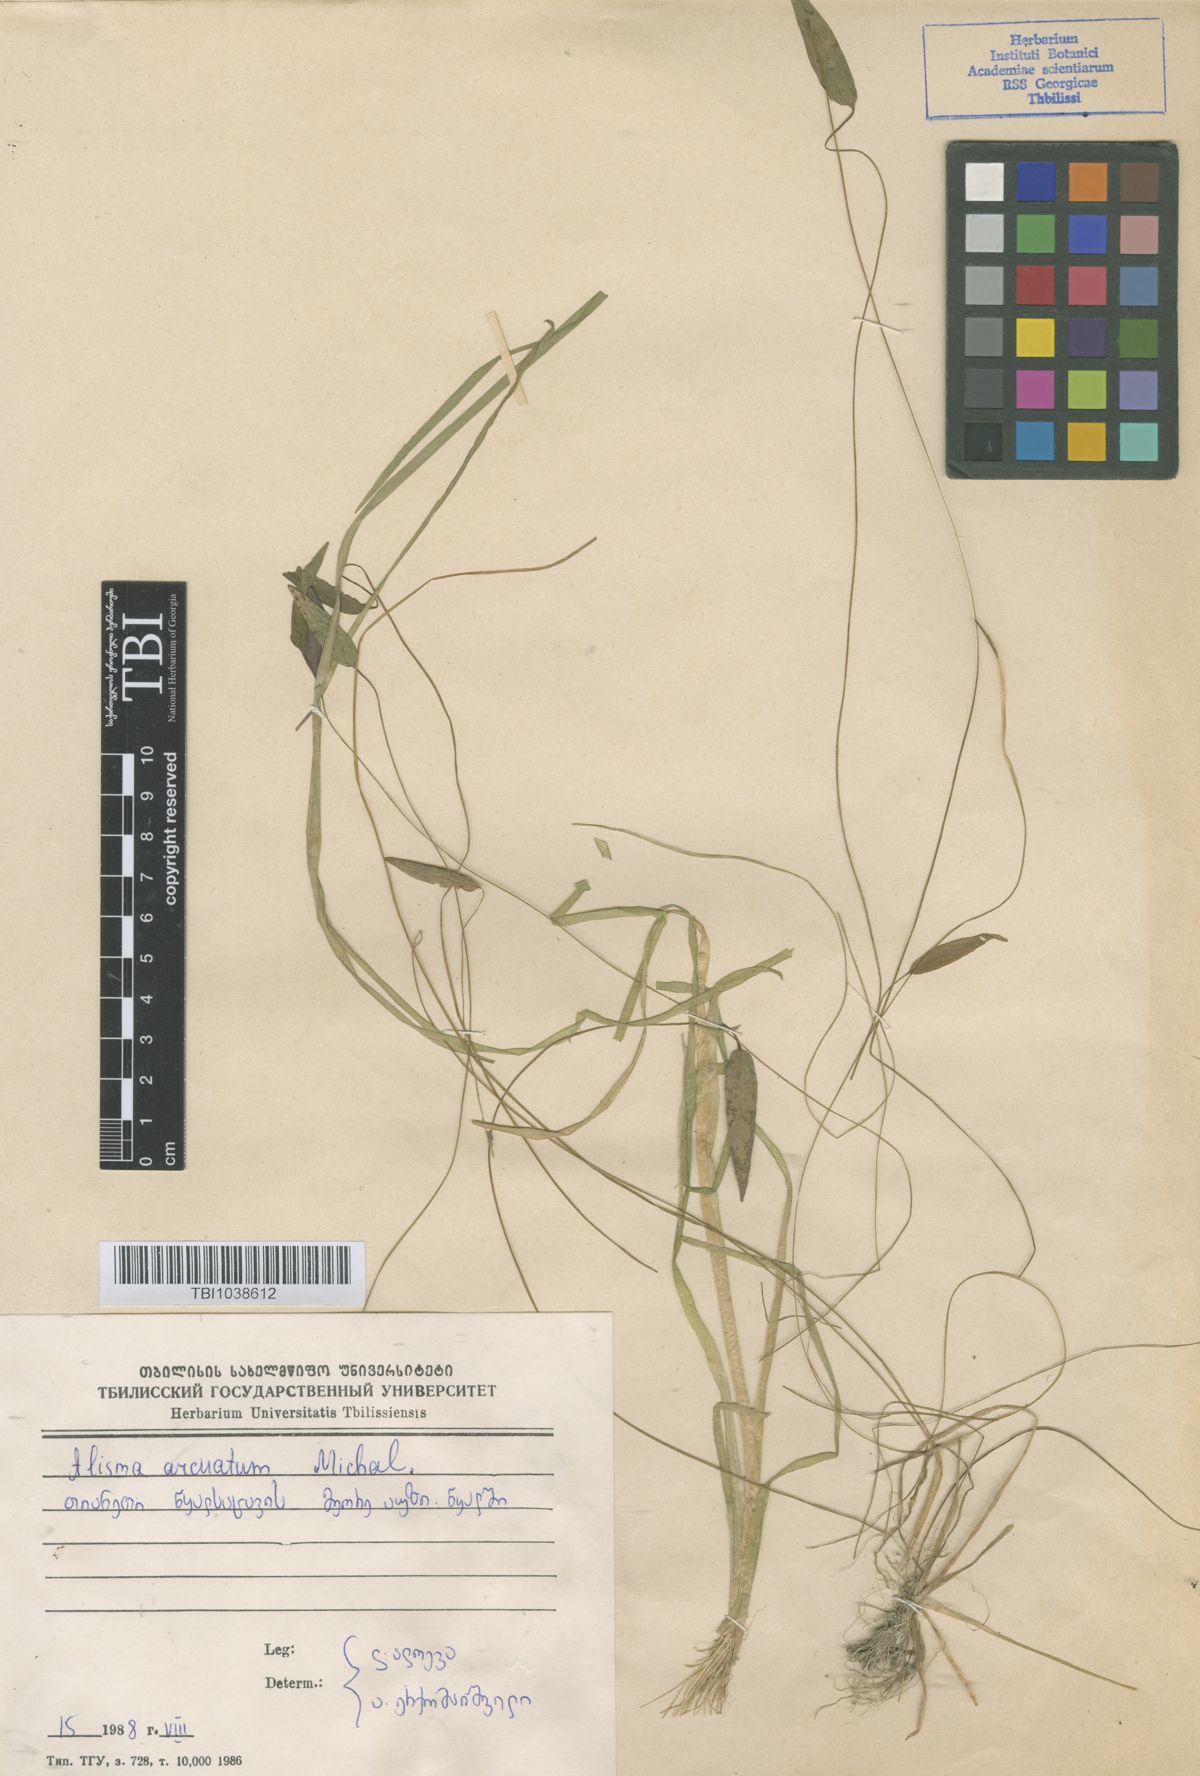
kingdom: Plantae
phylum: Tracheophyta
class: Liliopsida
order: Alismatales
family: Alismataceae
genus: Alisma
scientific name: Alisma gramineum
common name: Ribbon-leaved water-plantain
